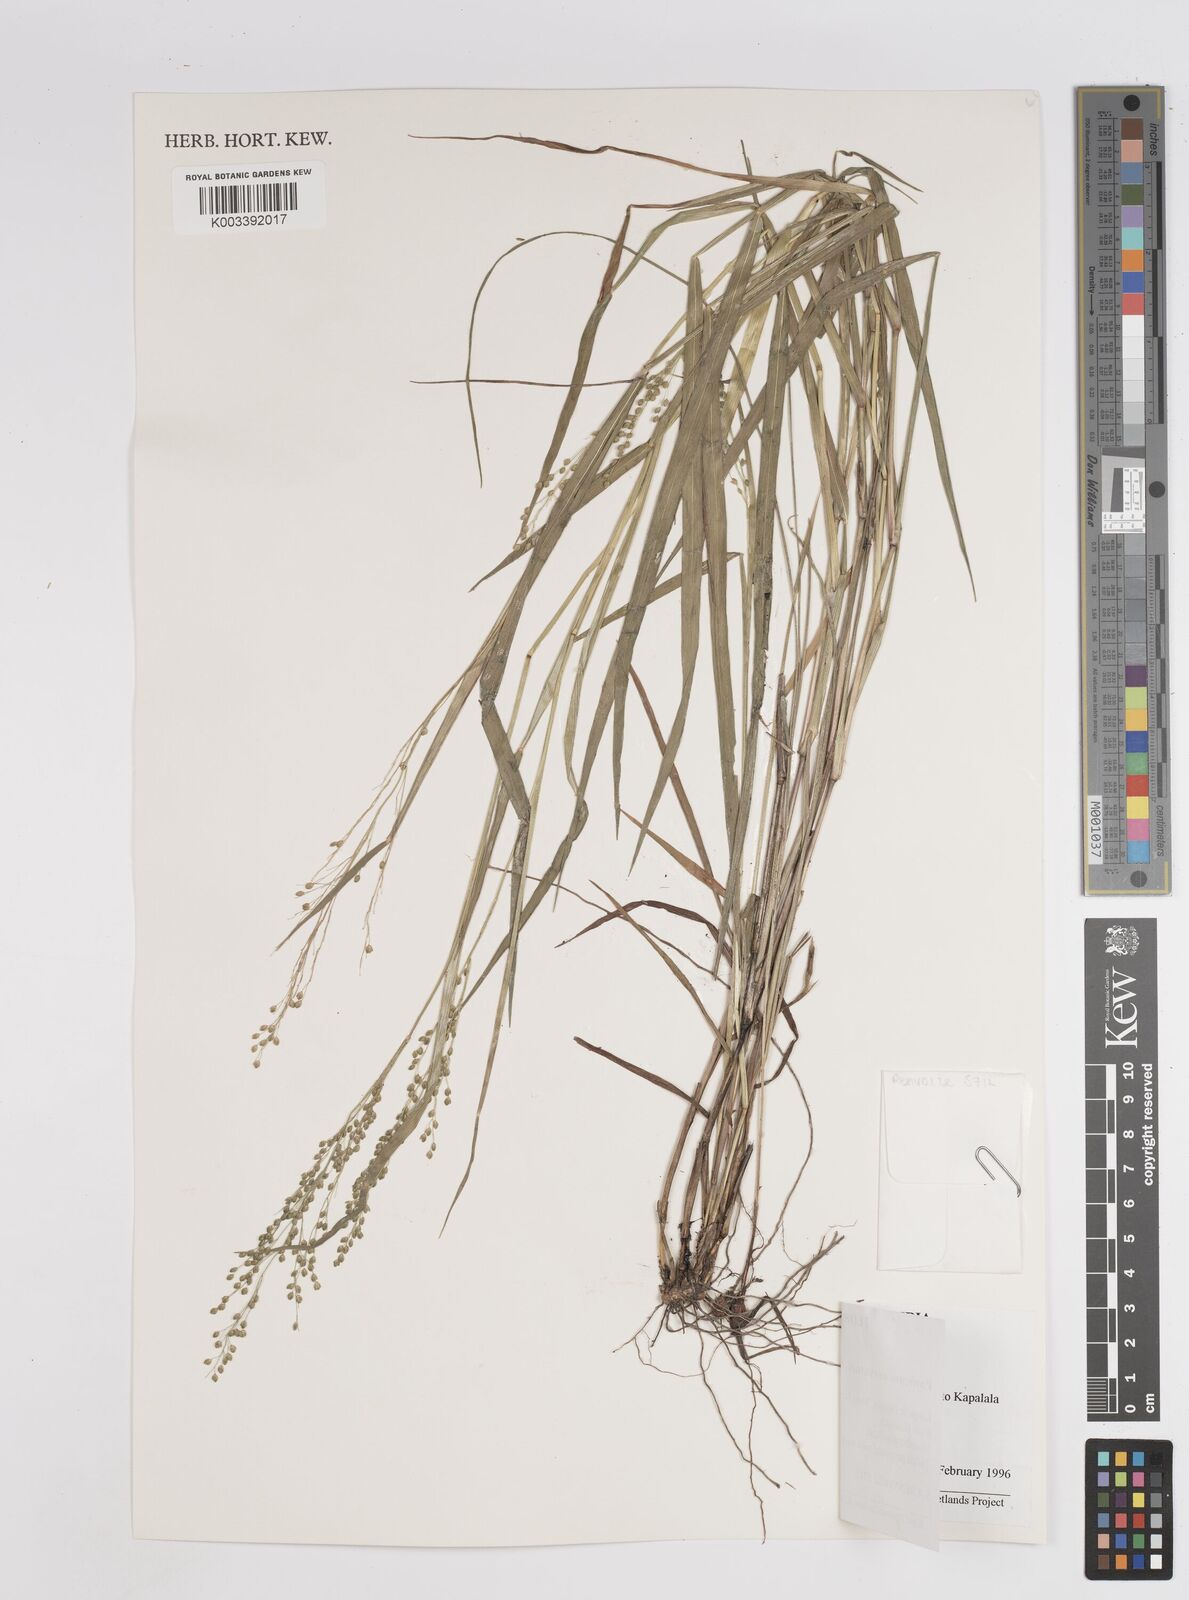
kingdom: Plantae
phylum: Tracheophyta
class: Liliopsida
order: Poales
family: Poaceae
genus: Trichanthecium
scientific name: Trichanthecium nervatum
